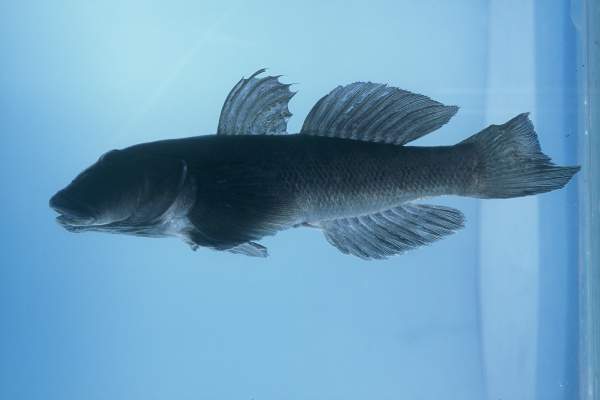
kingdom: Animalia
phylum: Chordata
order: Perciformes
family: Gobiidae
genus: Awaous
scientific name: Awaous aeneofuscus
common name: Freshwater goby
